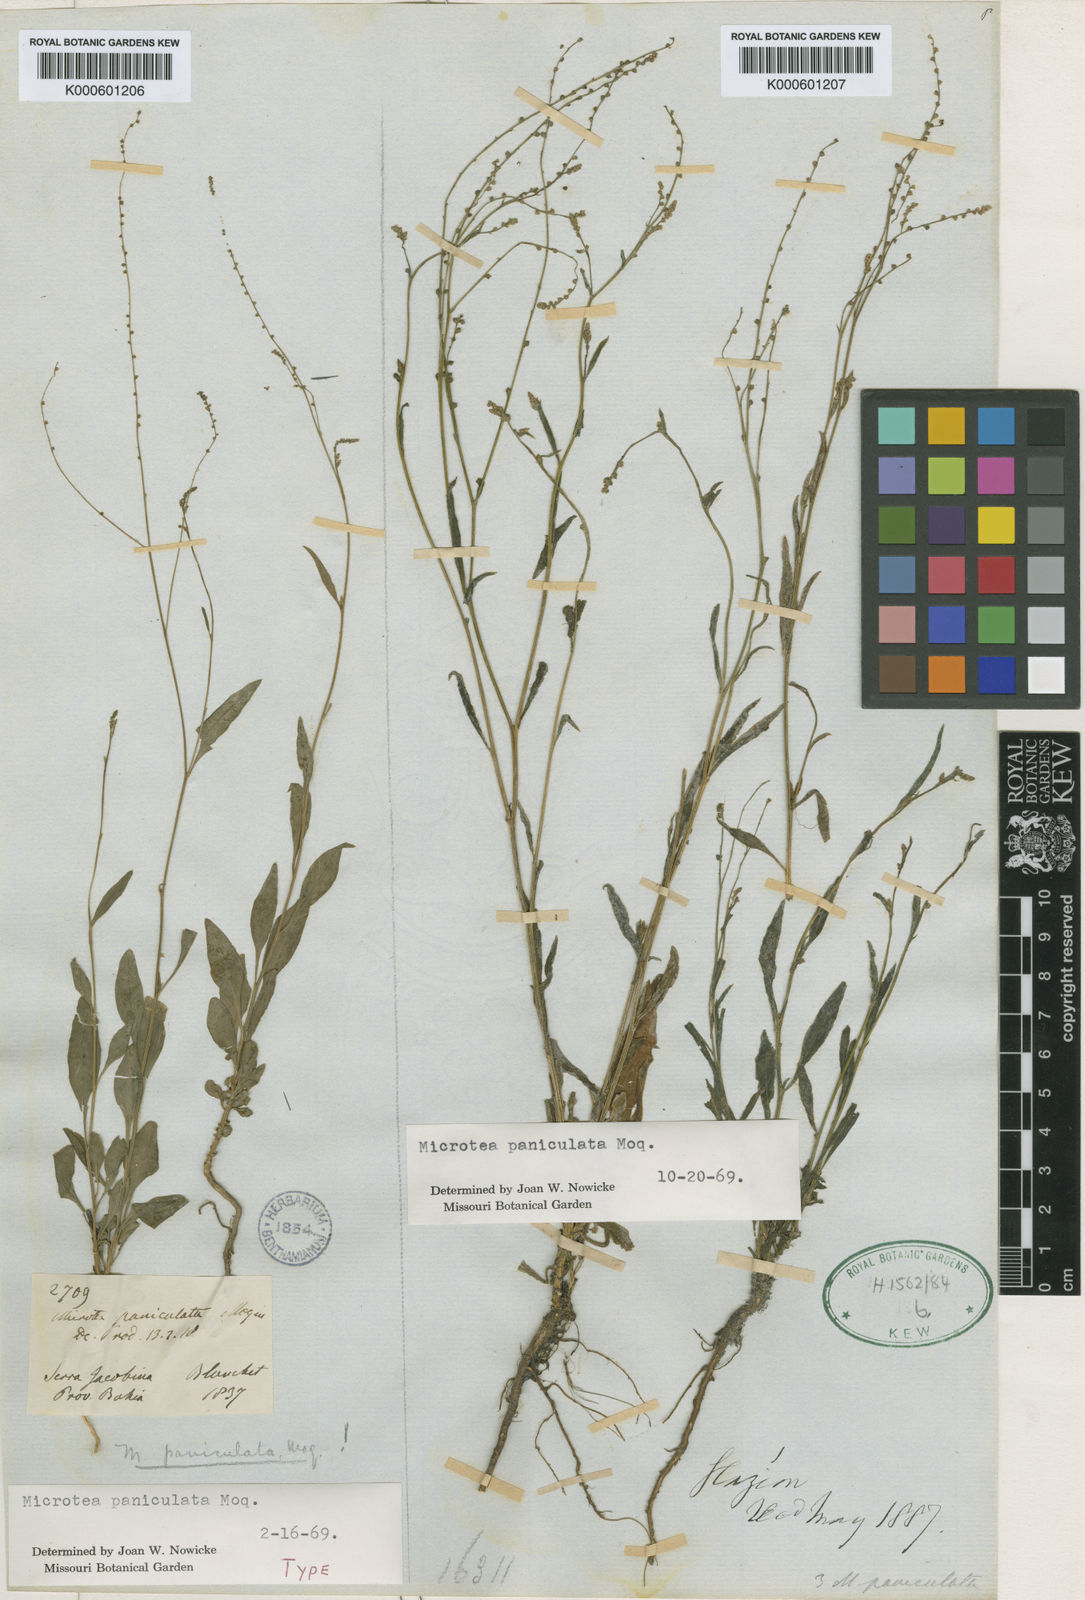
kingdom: Plantae
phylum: Tracheophyta
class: Magnoliopsida
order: Caryophyllales
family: Microteaceae
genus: Microtea
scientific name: Microtea paniculata
